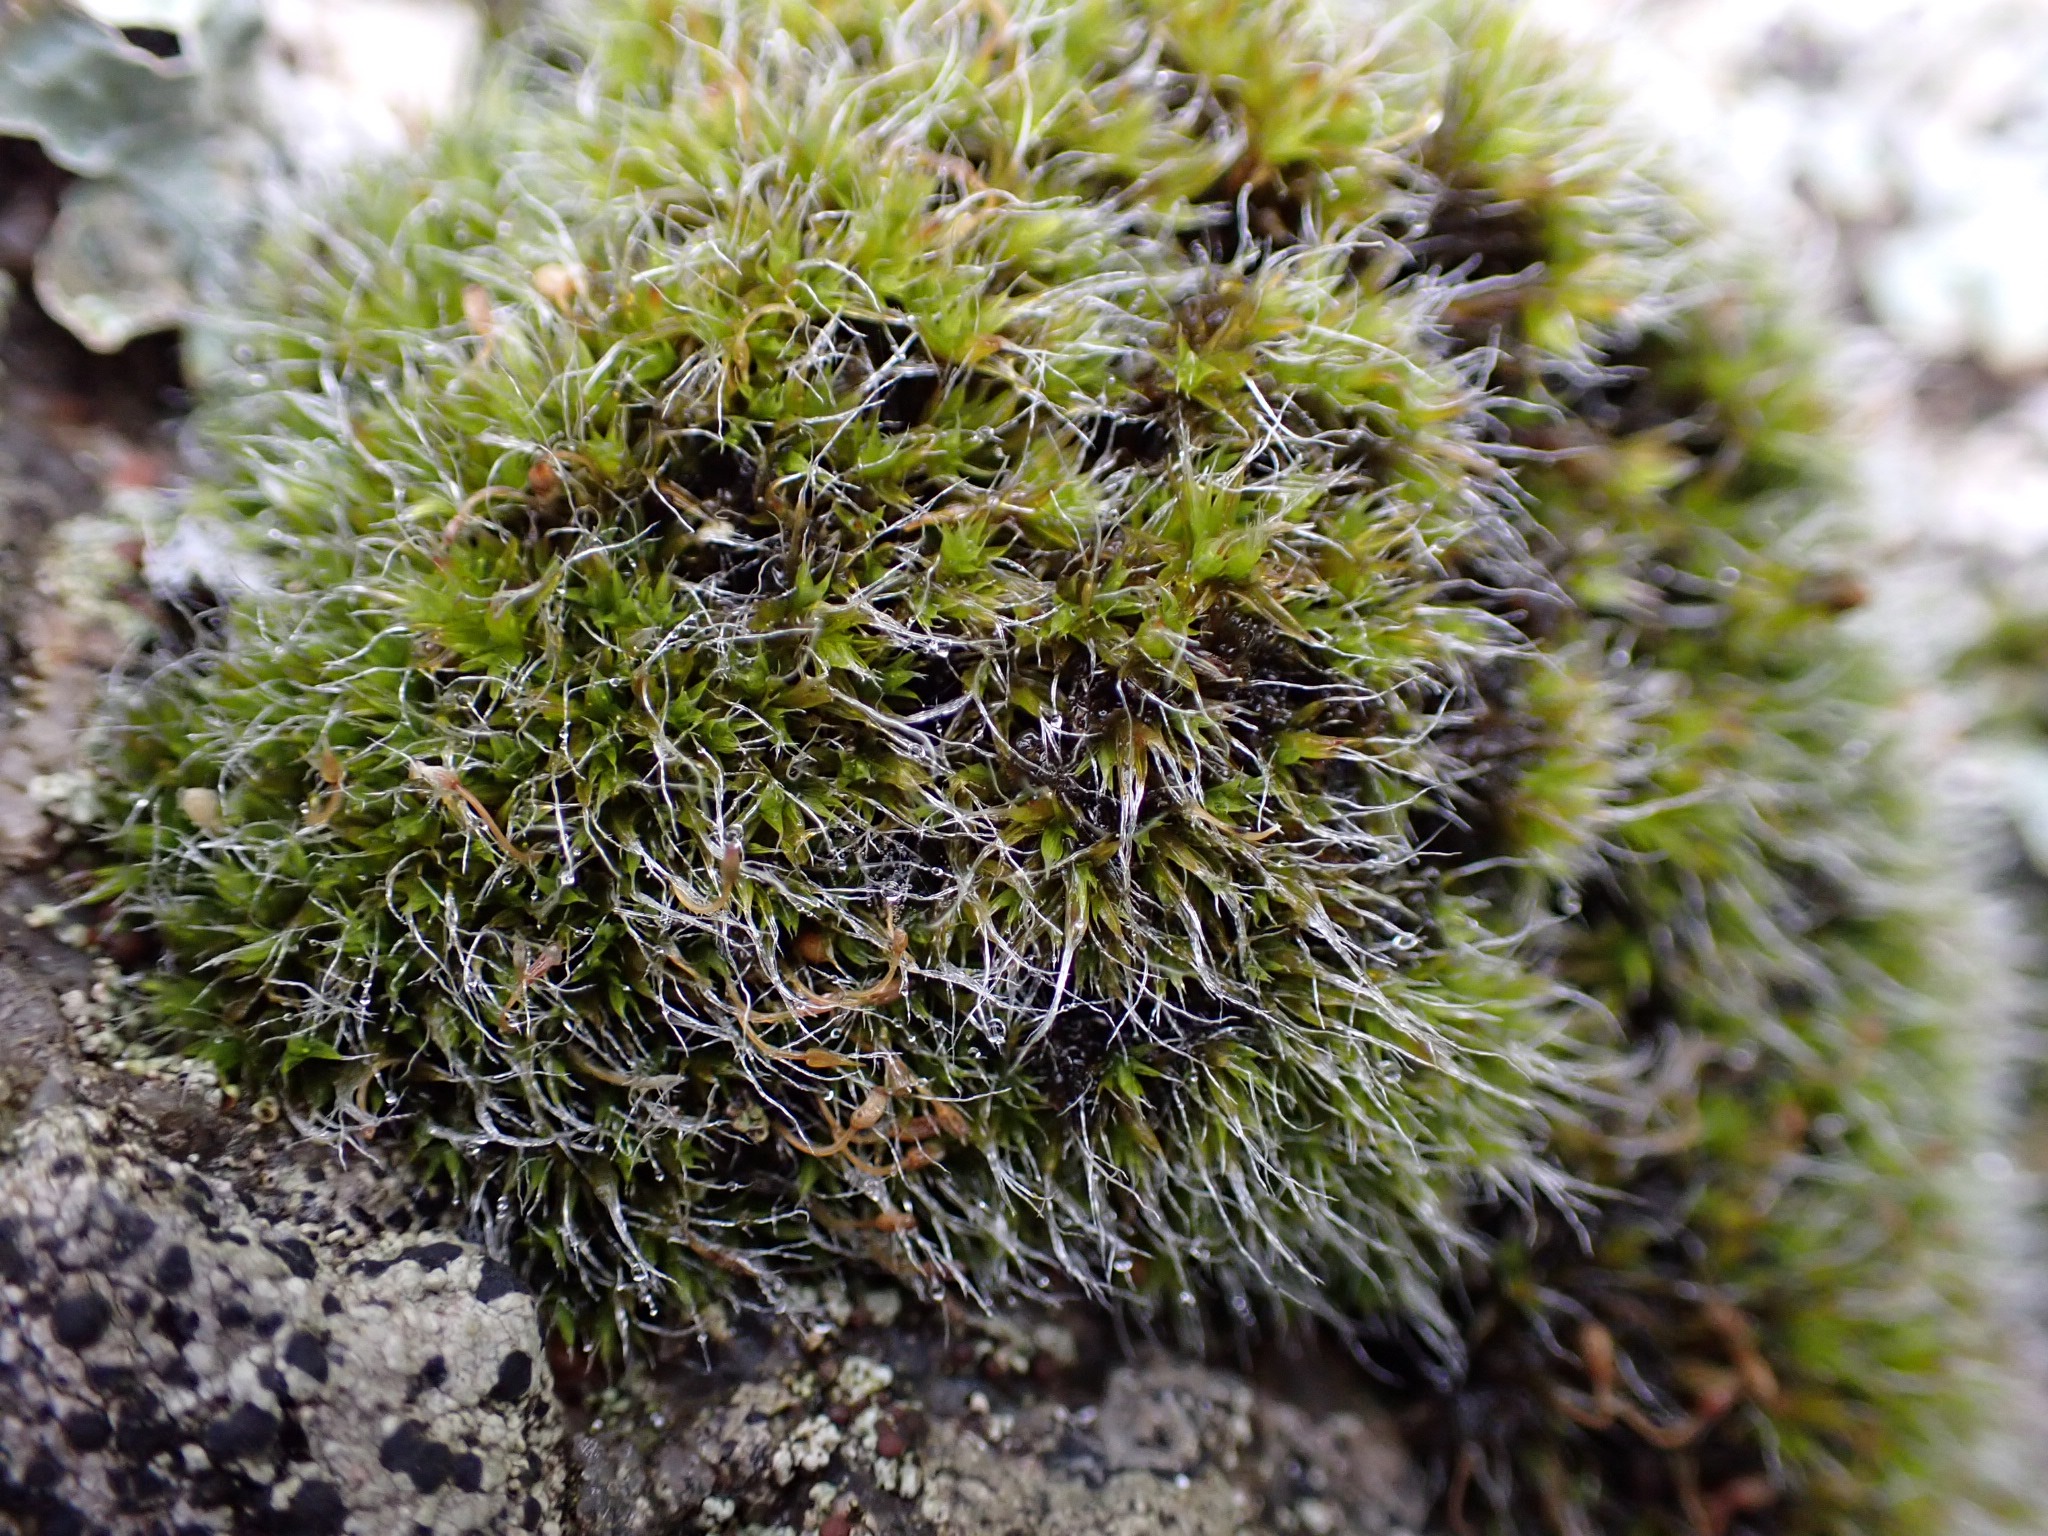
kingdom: Plantae
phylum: Bryophyta
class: Bryopsida
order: Grimmiales
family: Grimmiaceae
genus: Grimmia
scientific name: Grimmia pulvinata
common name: Pude-gråmos
